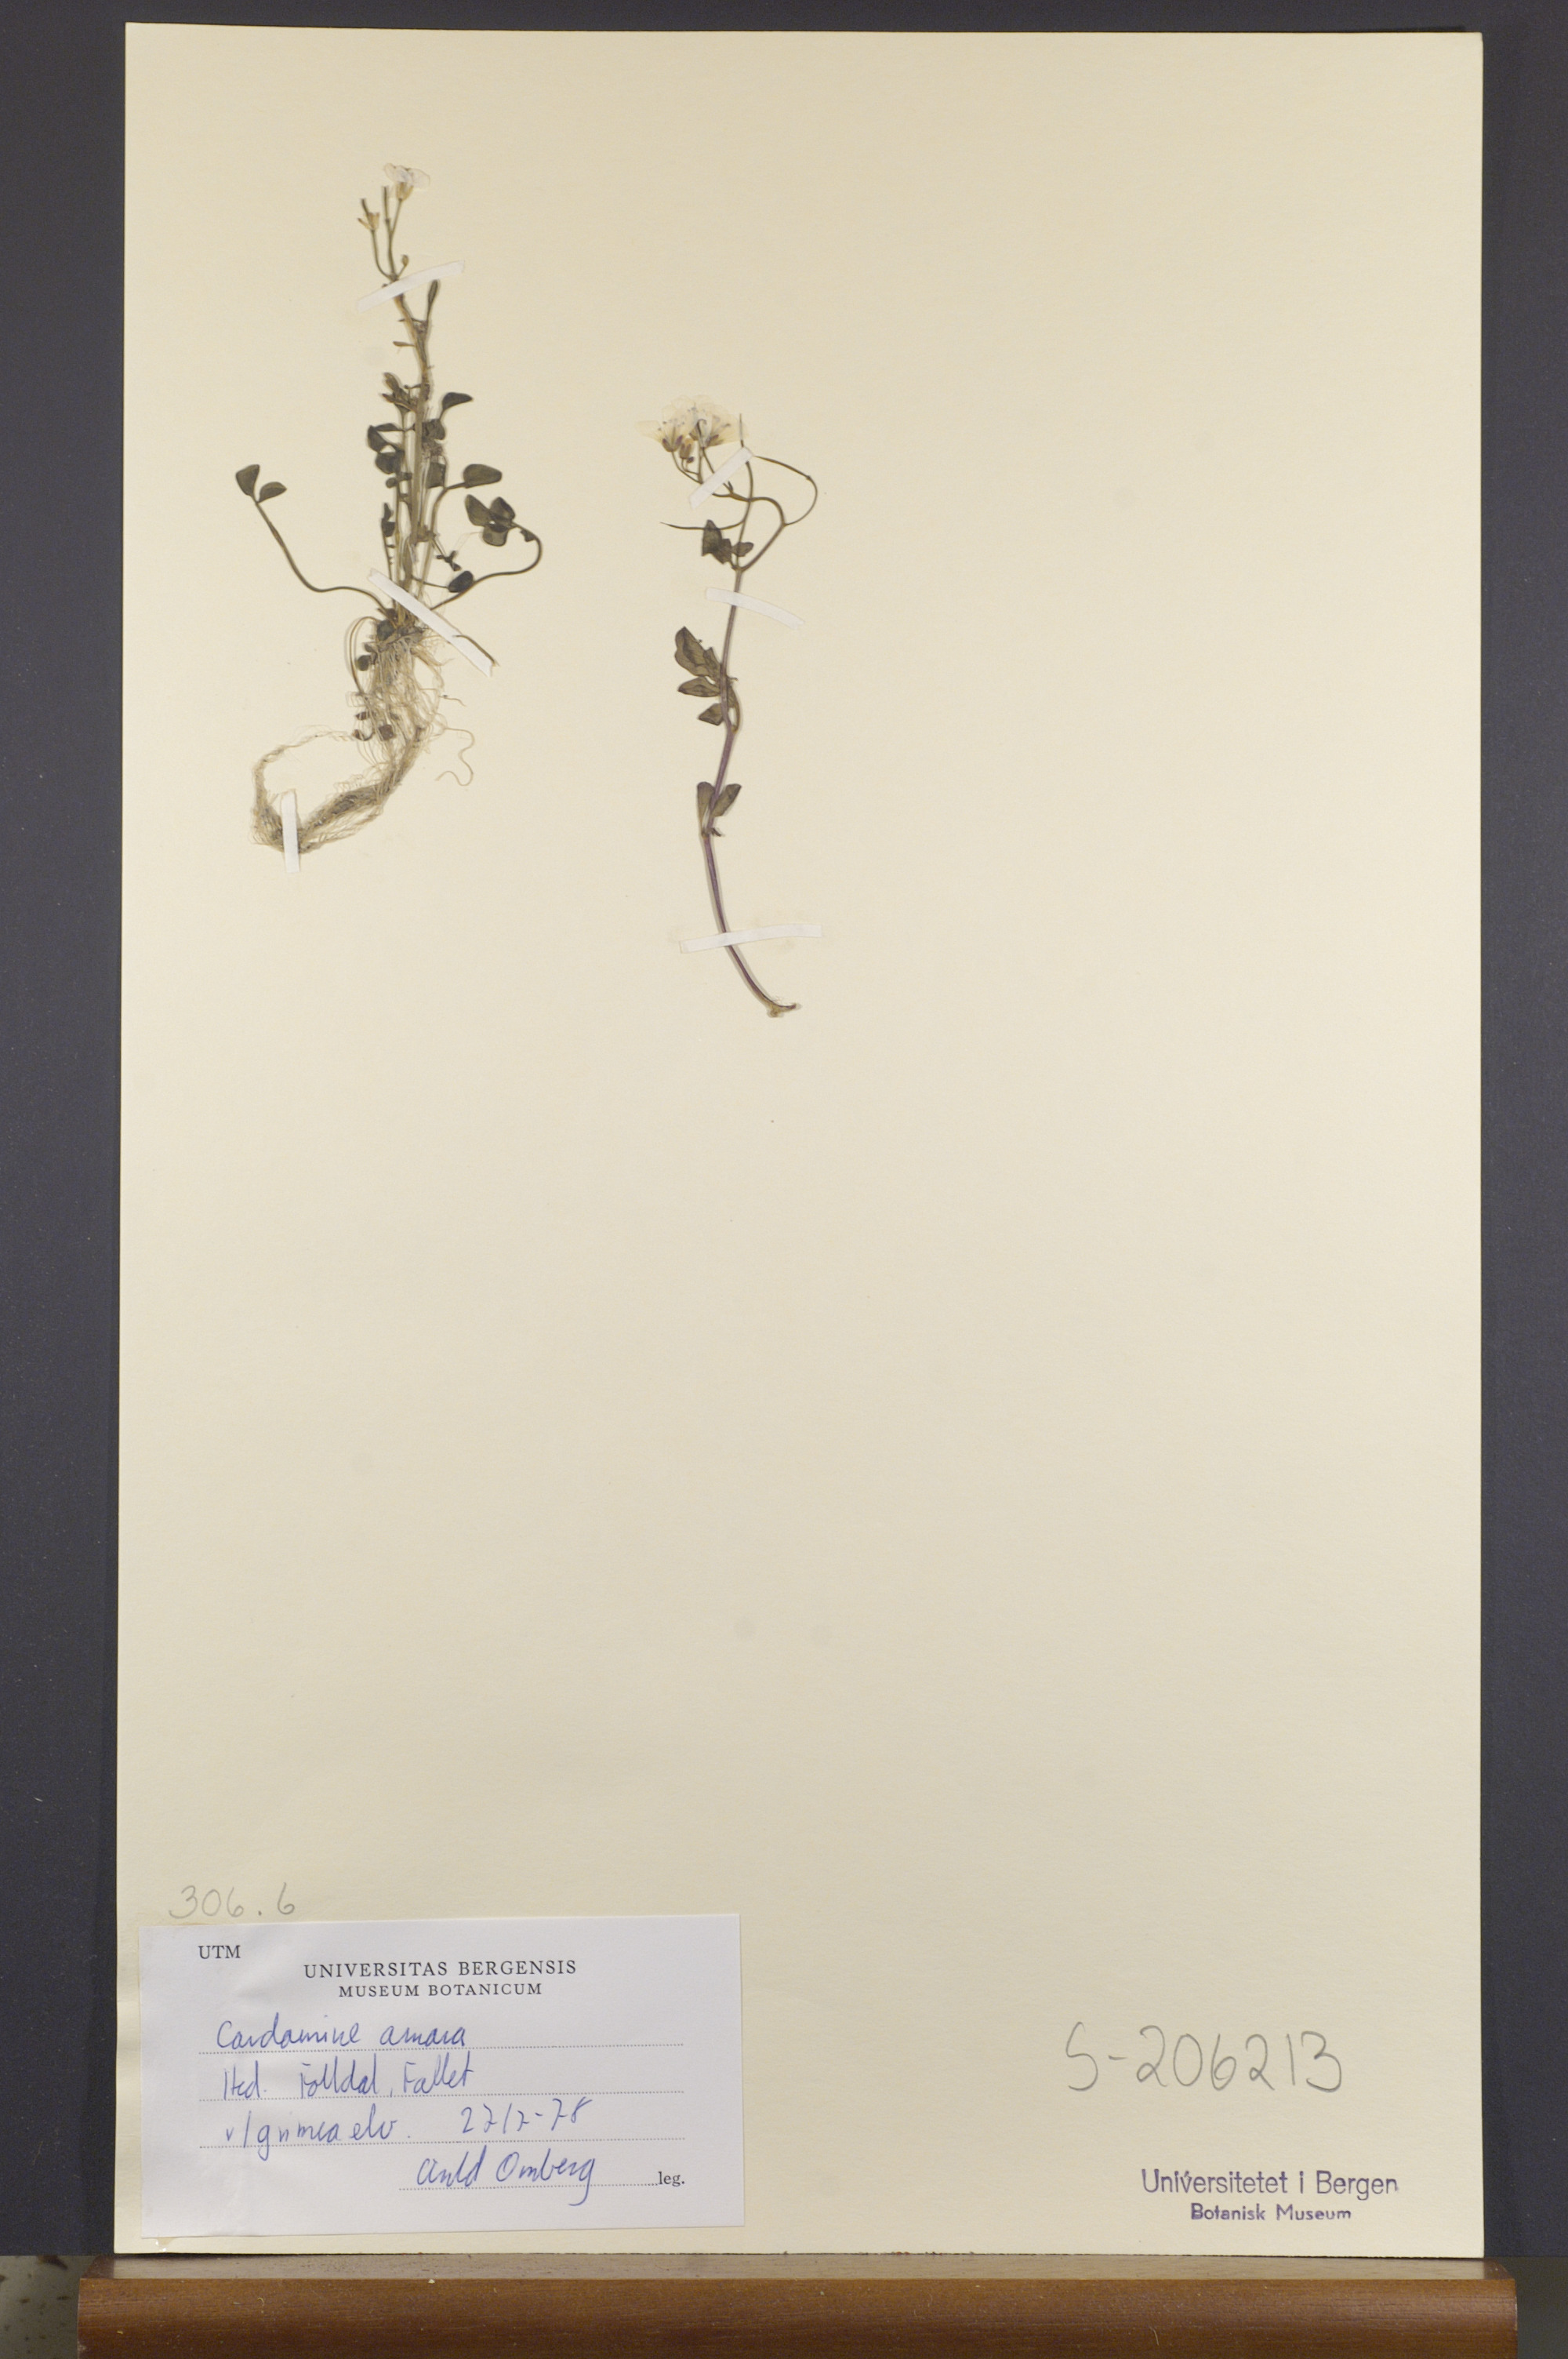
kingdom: Plantae
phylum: Tracheophyta
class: Magnoliopsida
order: Brassicales
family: Brassicaceae
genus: Cardamine
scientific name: Cardamine amara
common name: Large bitter-cress
